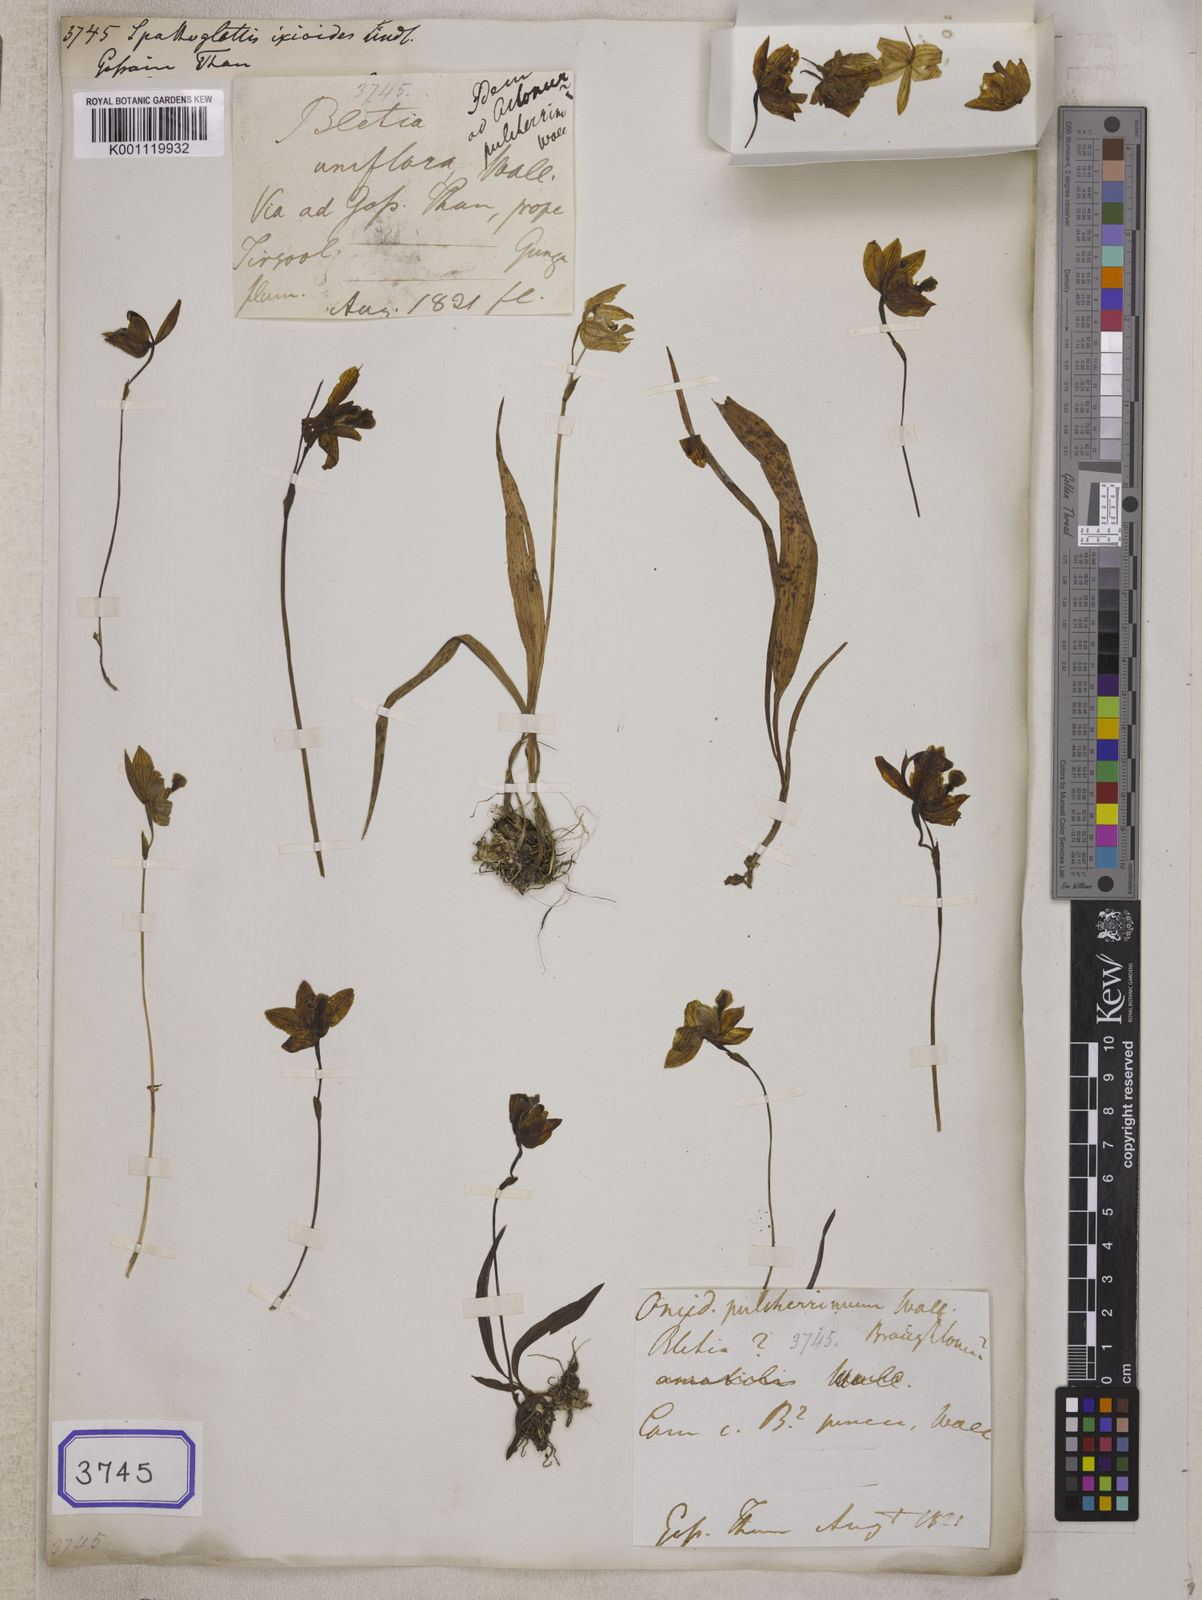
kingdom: Plantae
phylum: Tracheophyta
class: Liliopsida
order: Asparagales
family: Orchidaceae
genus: Spathoglottis
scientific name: Spathoglottis ixioides
